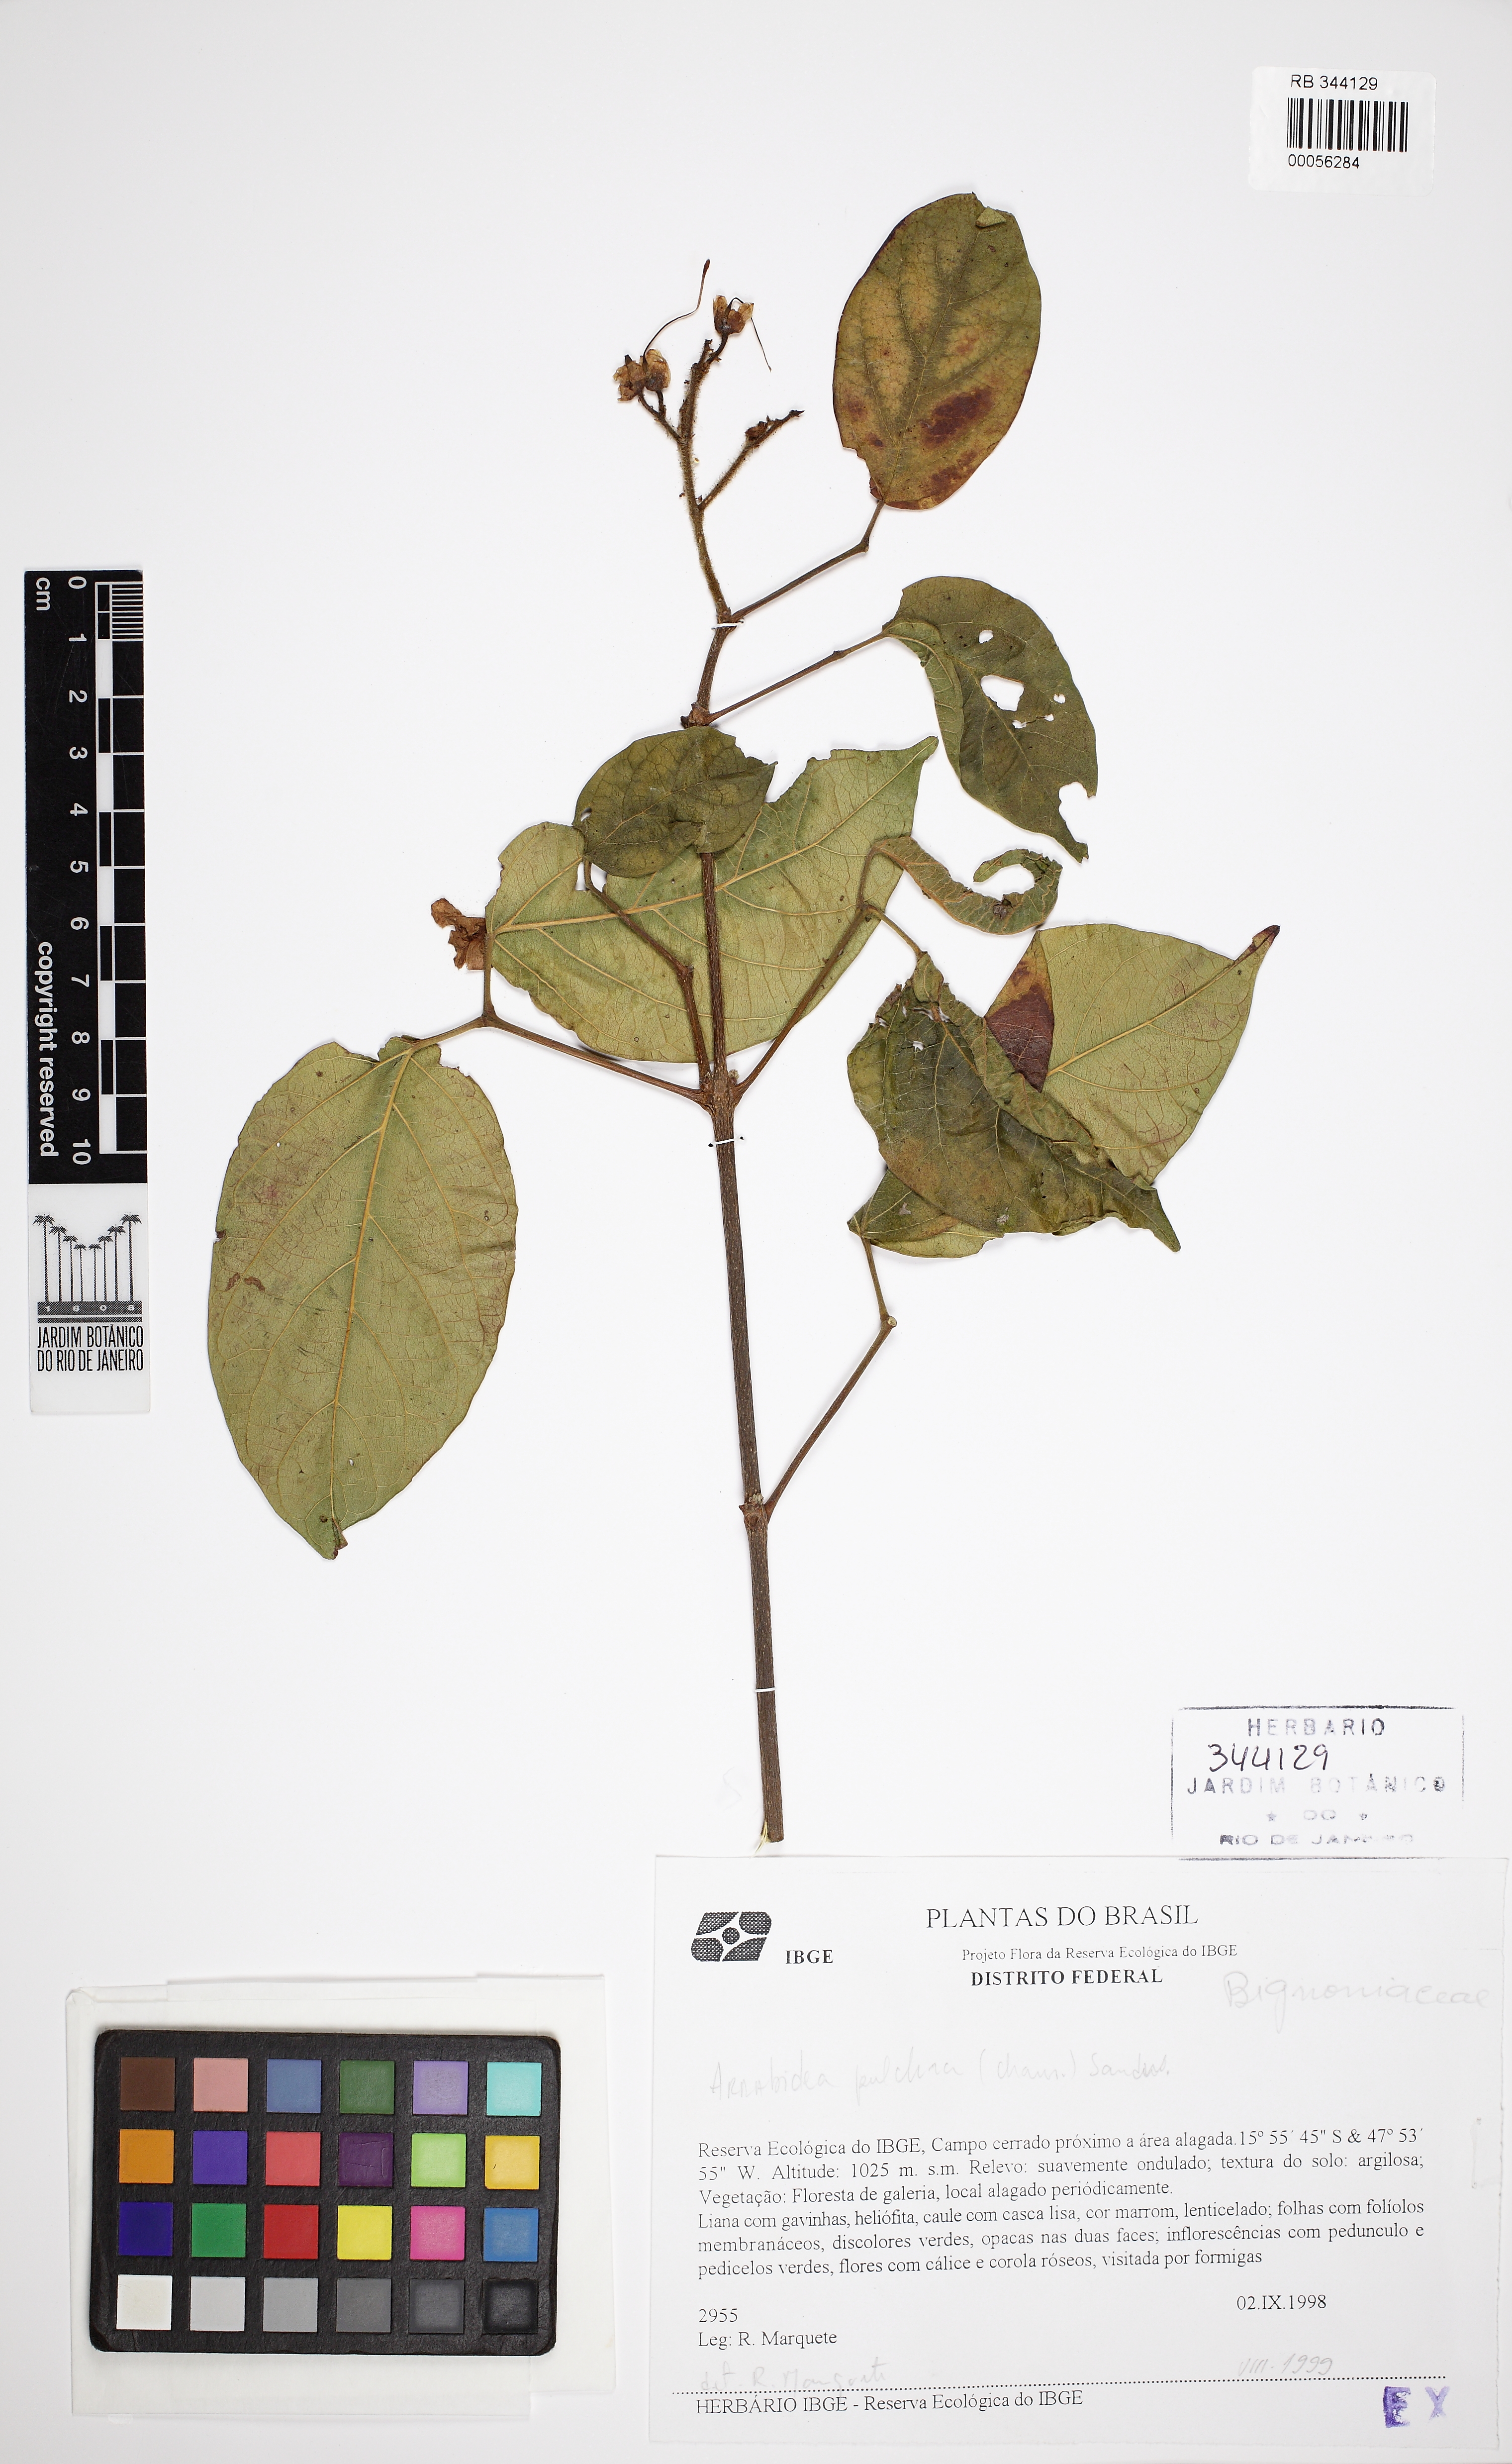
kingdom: Plantae
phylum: Tracheophyta
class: Magnoliopsida
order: Lamiales
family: Bignoniaceae
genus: Cuspidaria
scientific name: Cuspidaria pulchra
